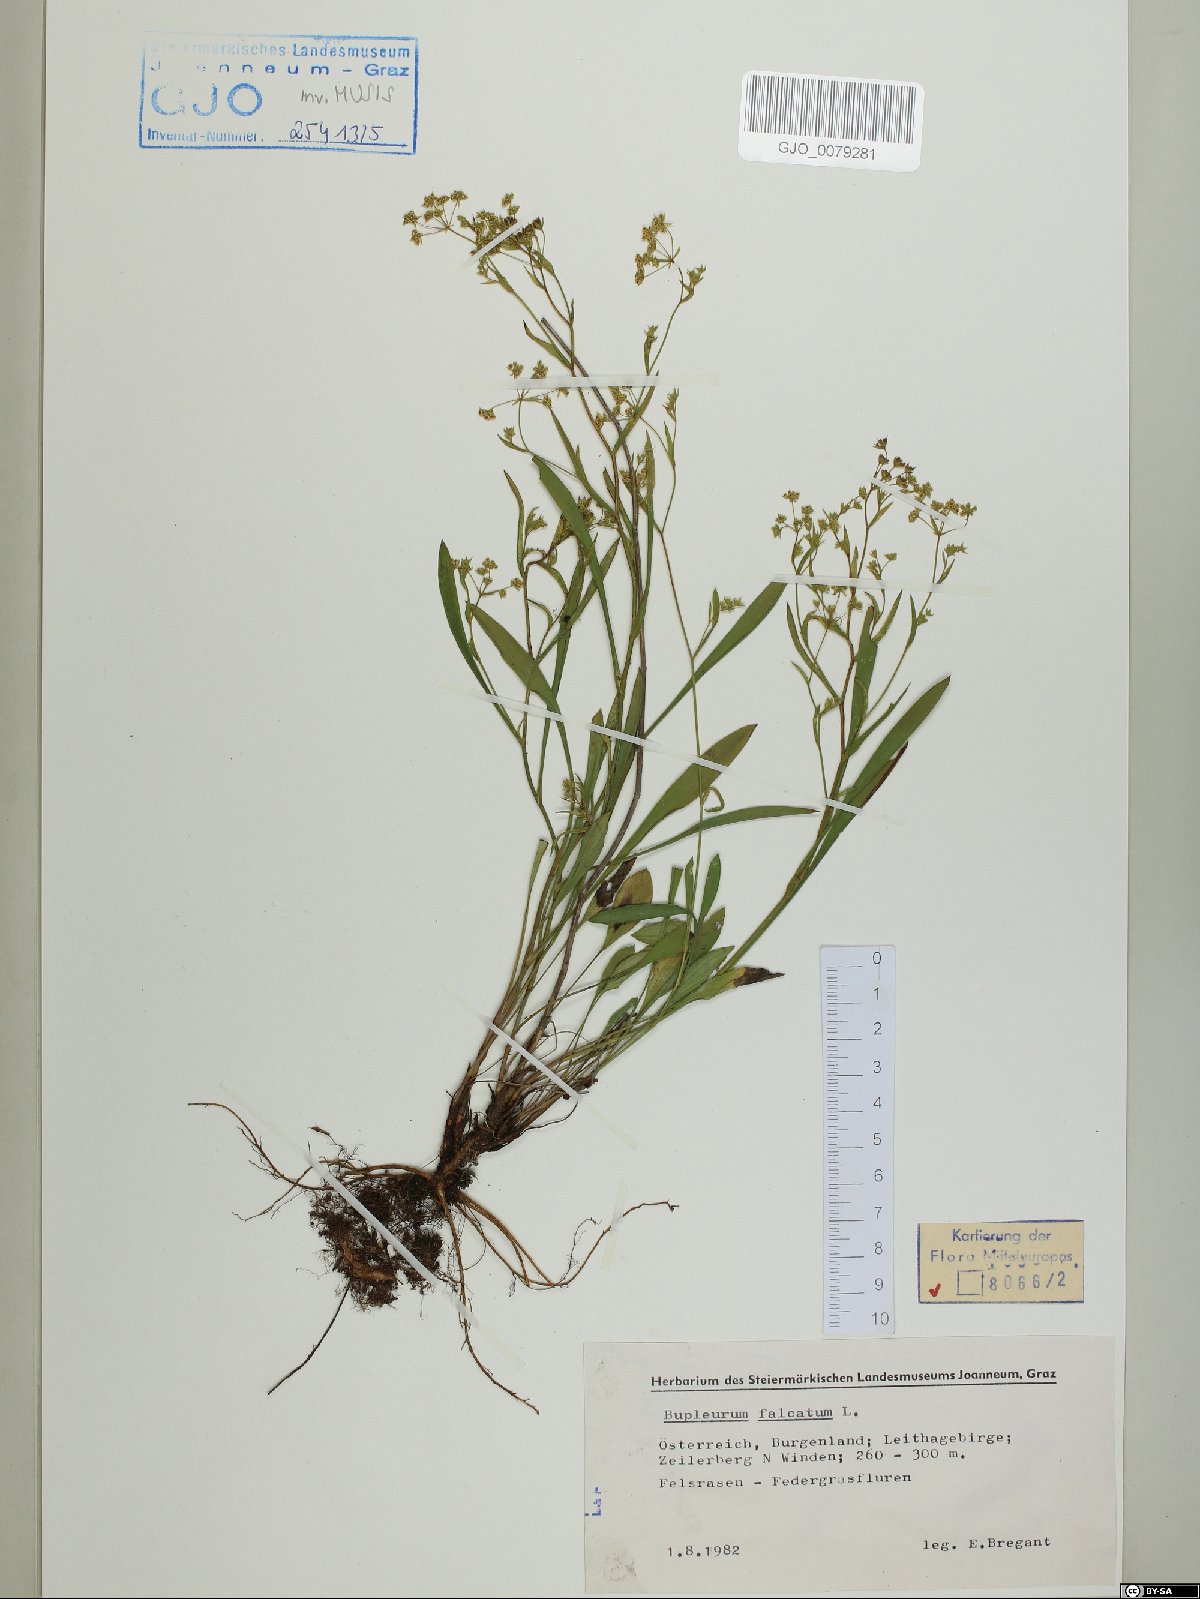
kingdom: Plantae
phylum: Tracheophyta
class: Magnoliopsida
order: Apiales
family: Apiaceae
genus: Bupleurum
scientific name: Bupleurum falcatum
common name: Sickle-leaved hare's-ear
